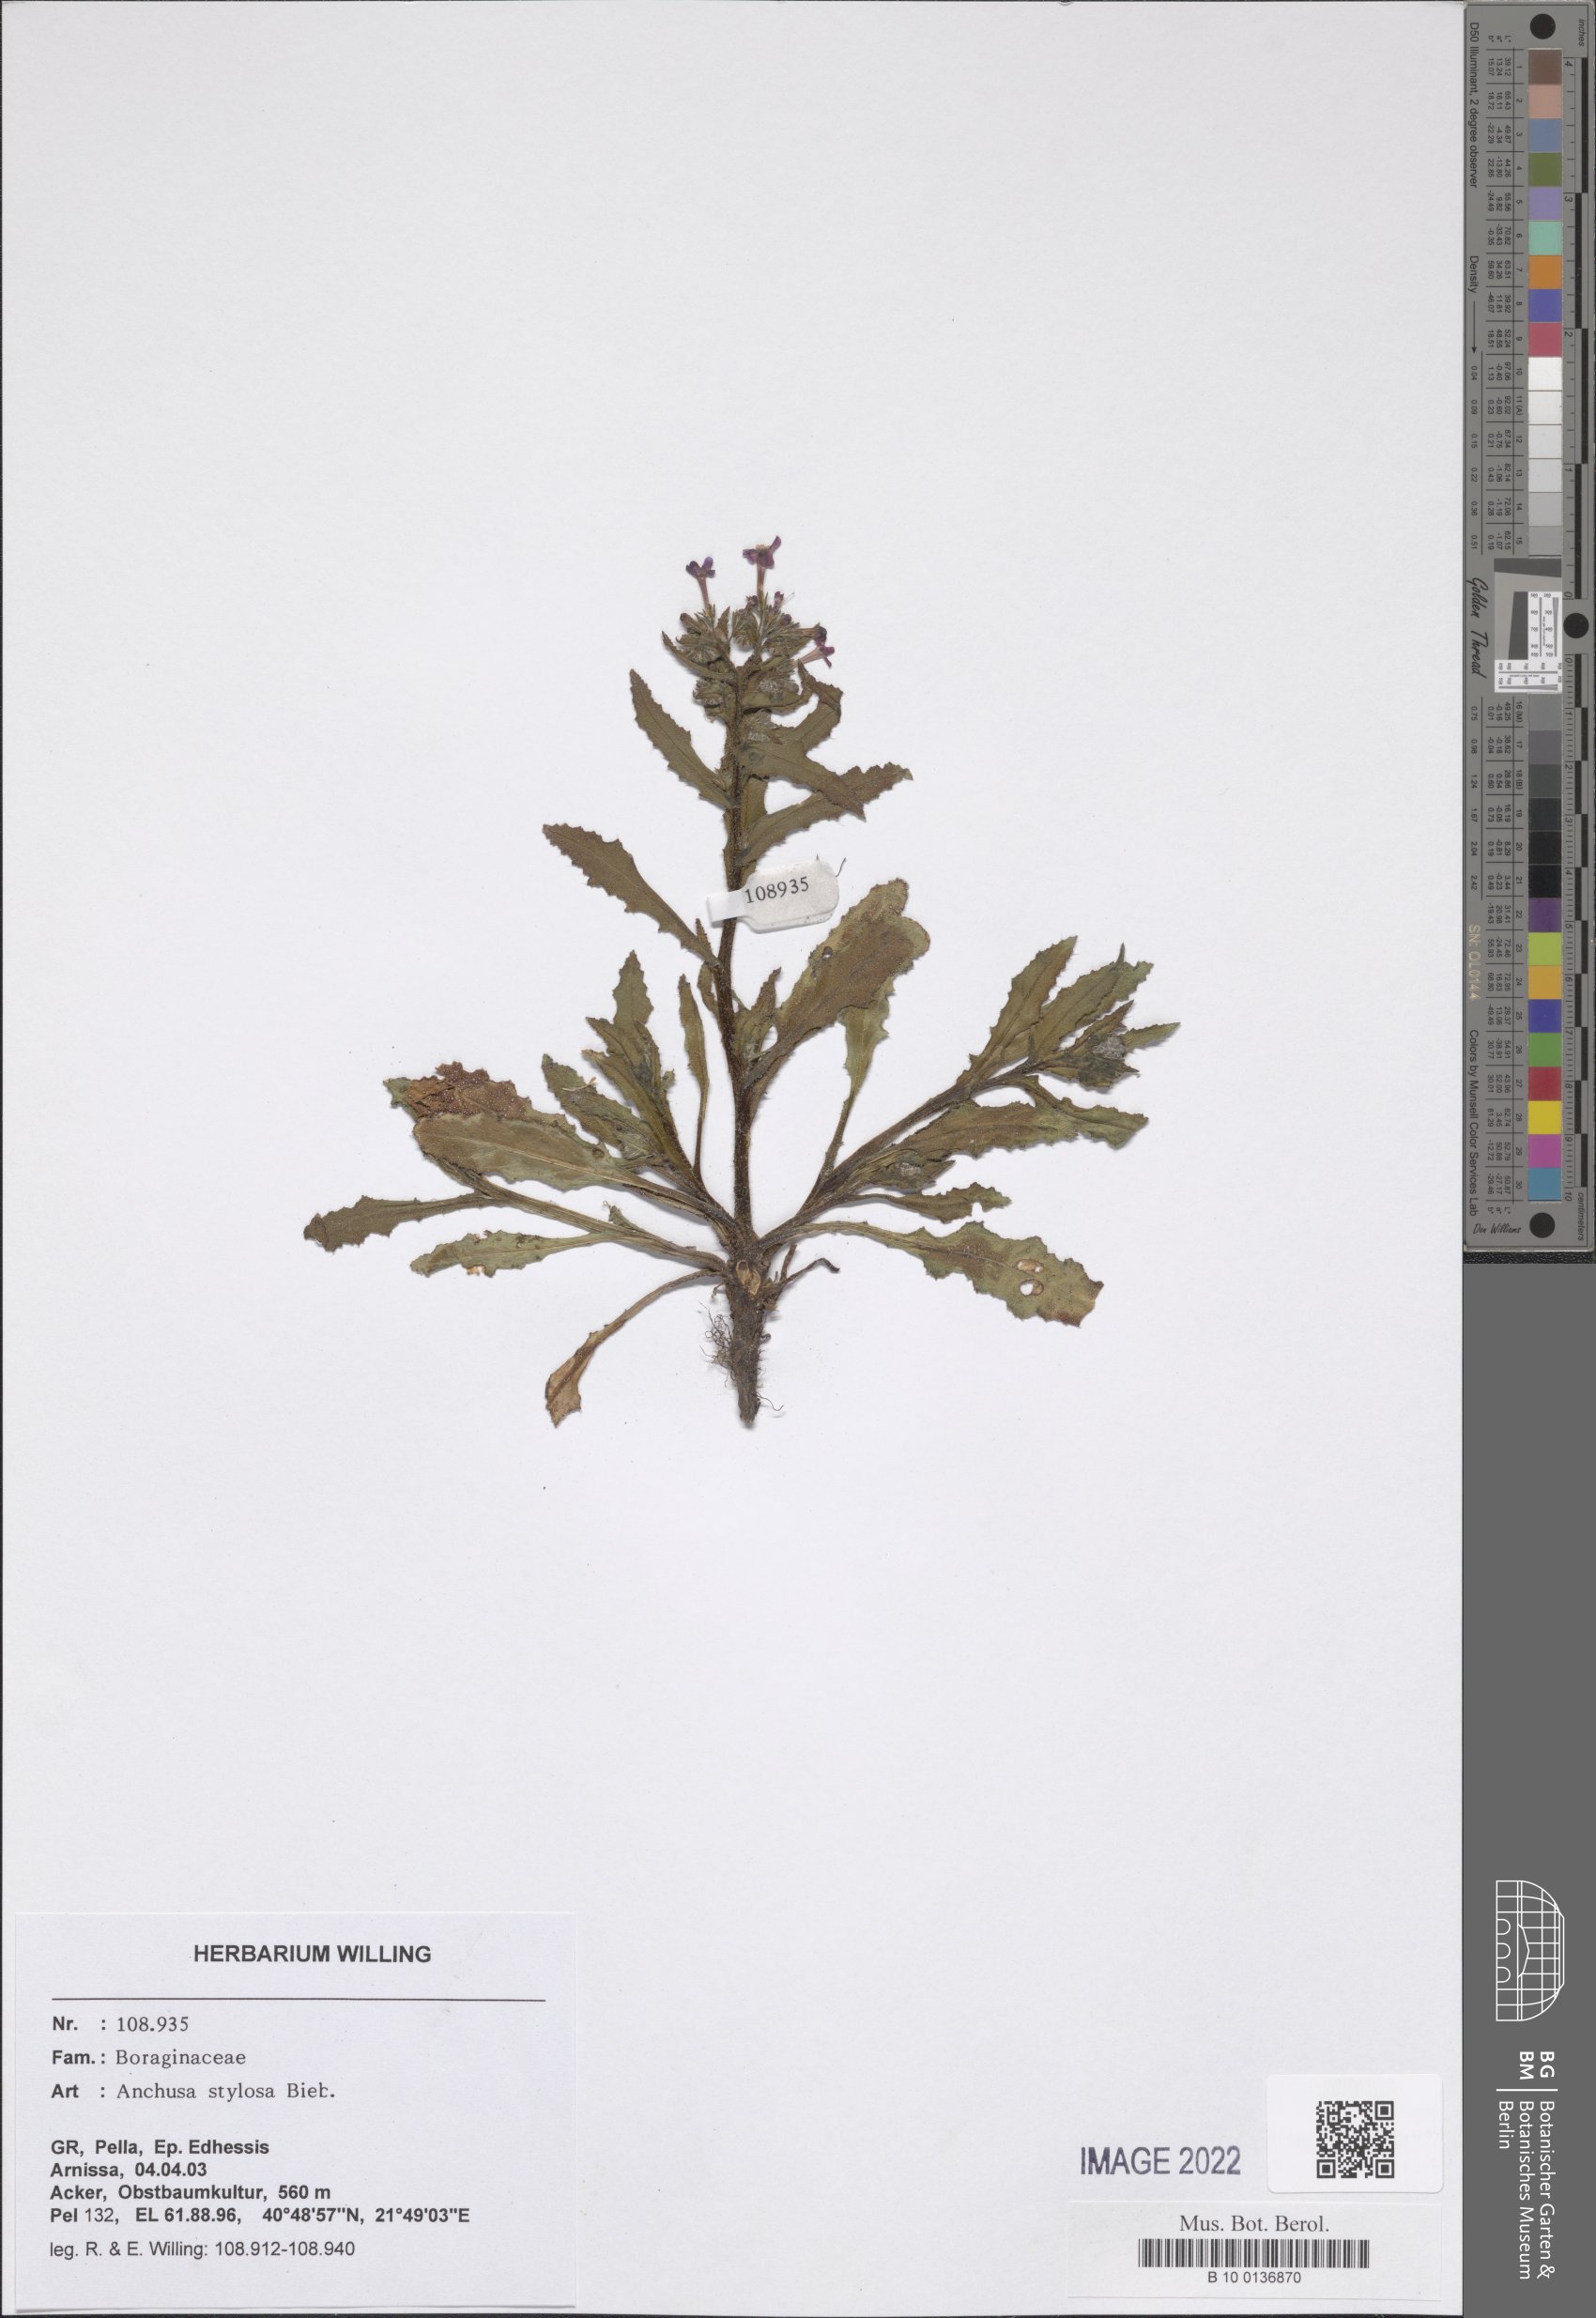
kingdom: Plantae
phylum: Tracheophyta
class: Magnoliopsida
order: Boraginales
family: Boraginaceae
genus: Anchusa
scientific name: Anchusa stylosa
